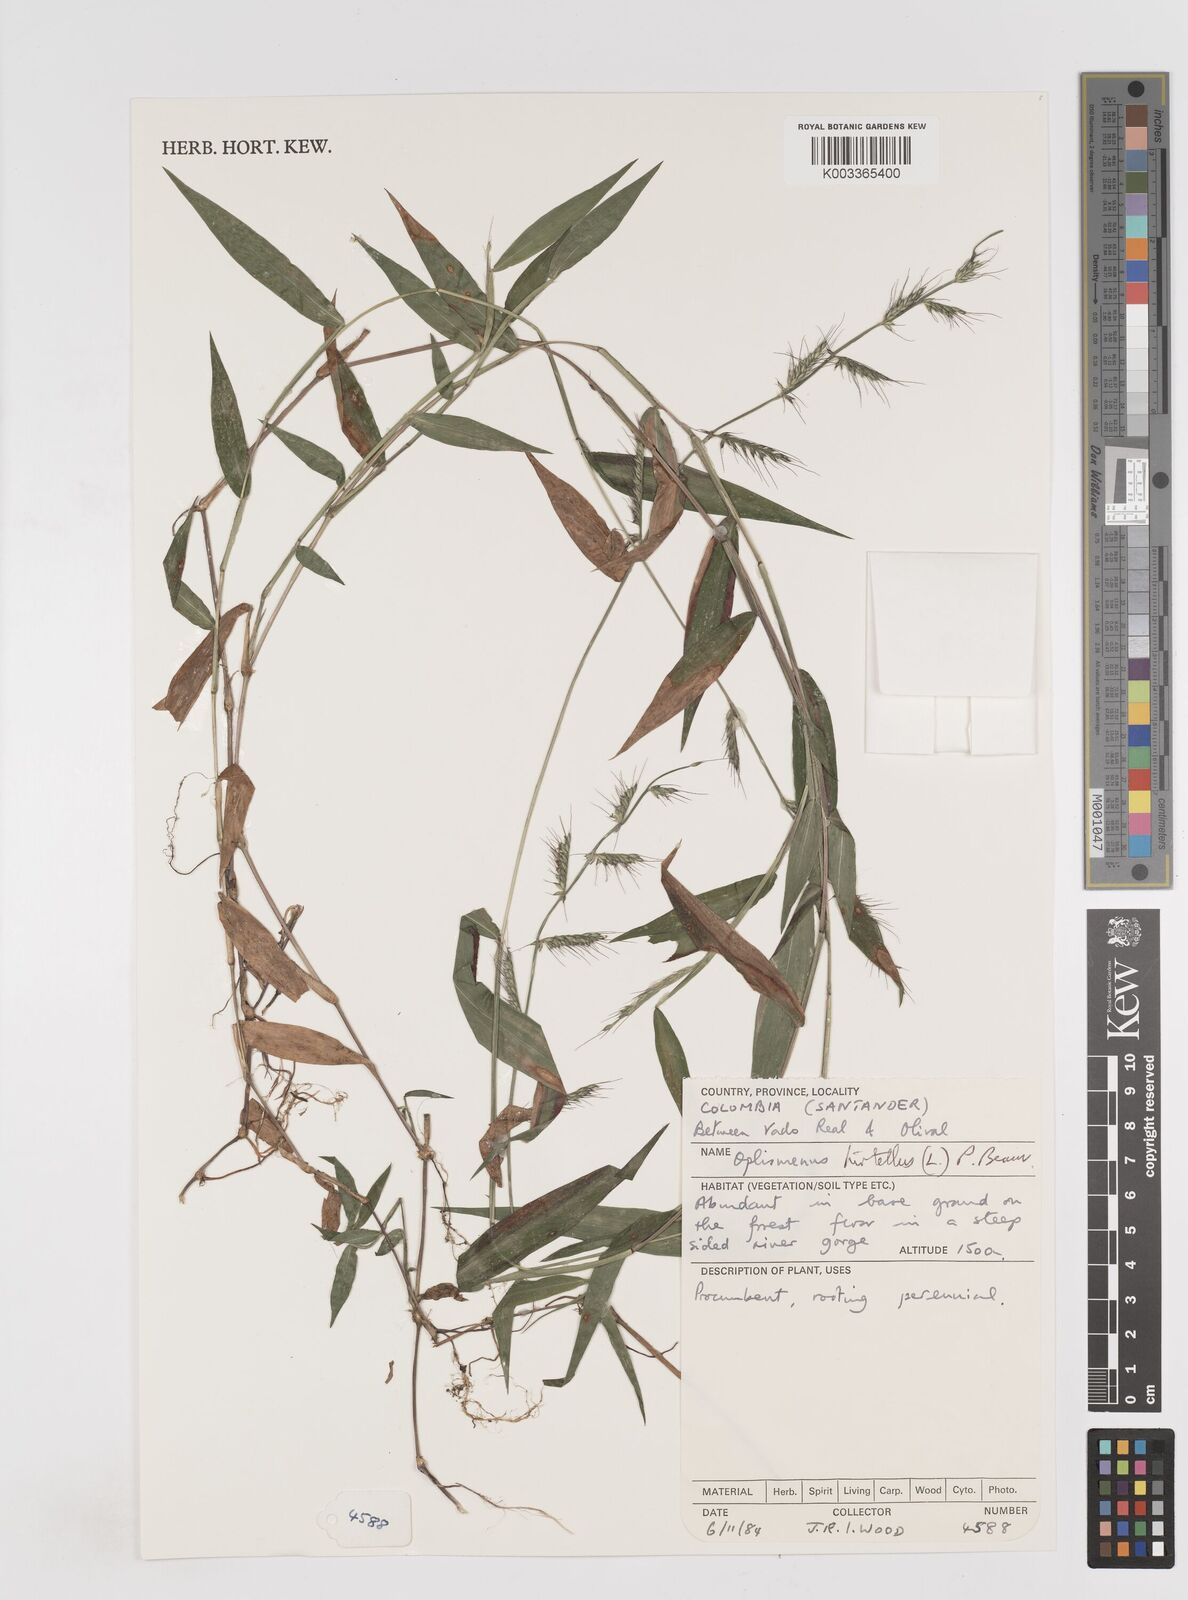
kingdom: Plantae
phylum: Tracheophyta
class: Liliopsida
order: Poales
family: Poaceae
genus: Oplismenus
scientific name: Oplismenus hirtellus
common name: Basketgrass
